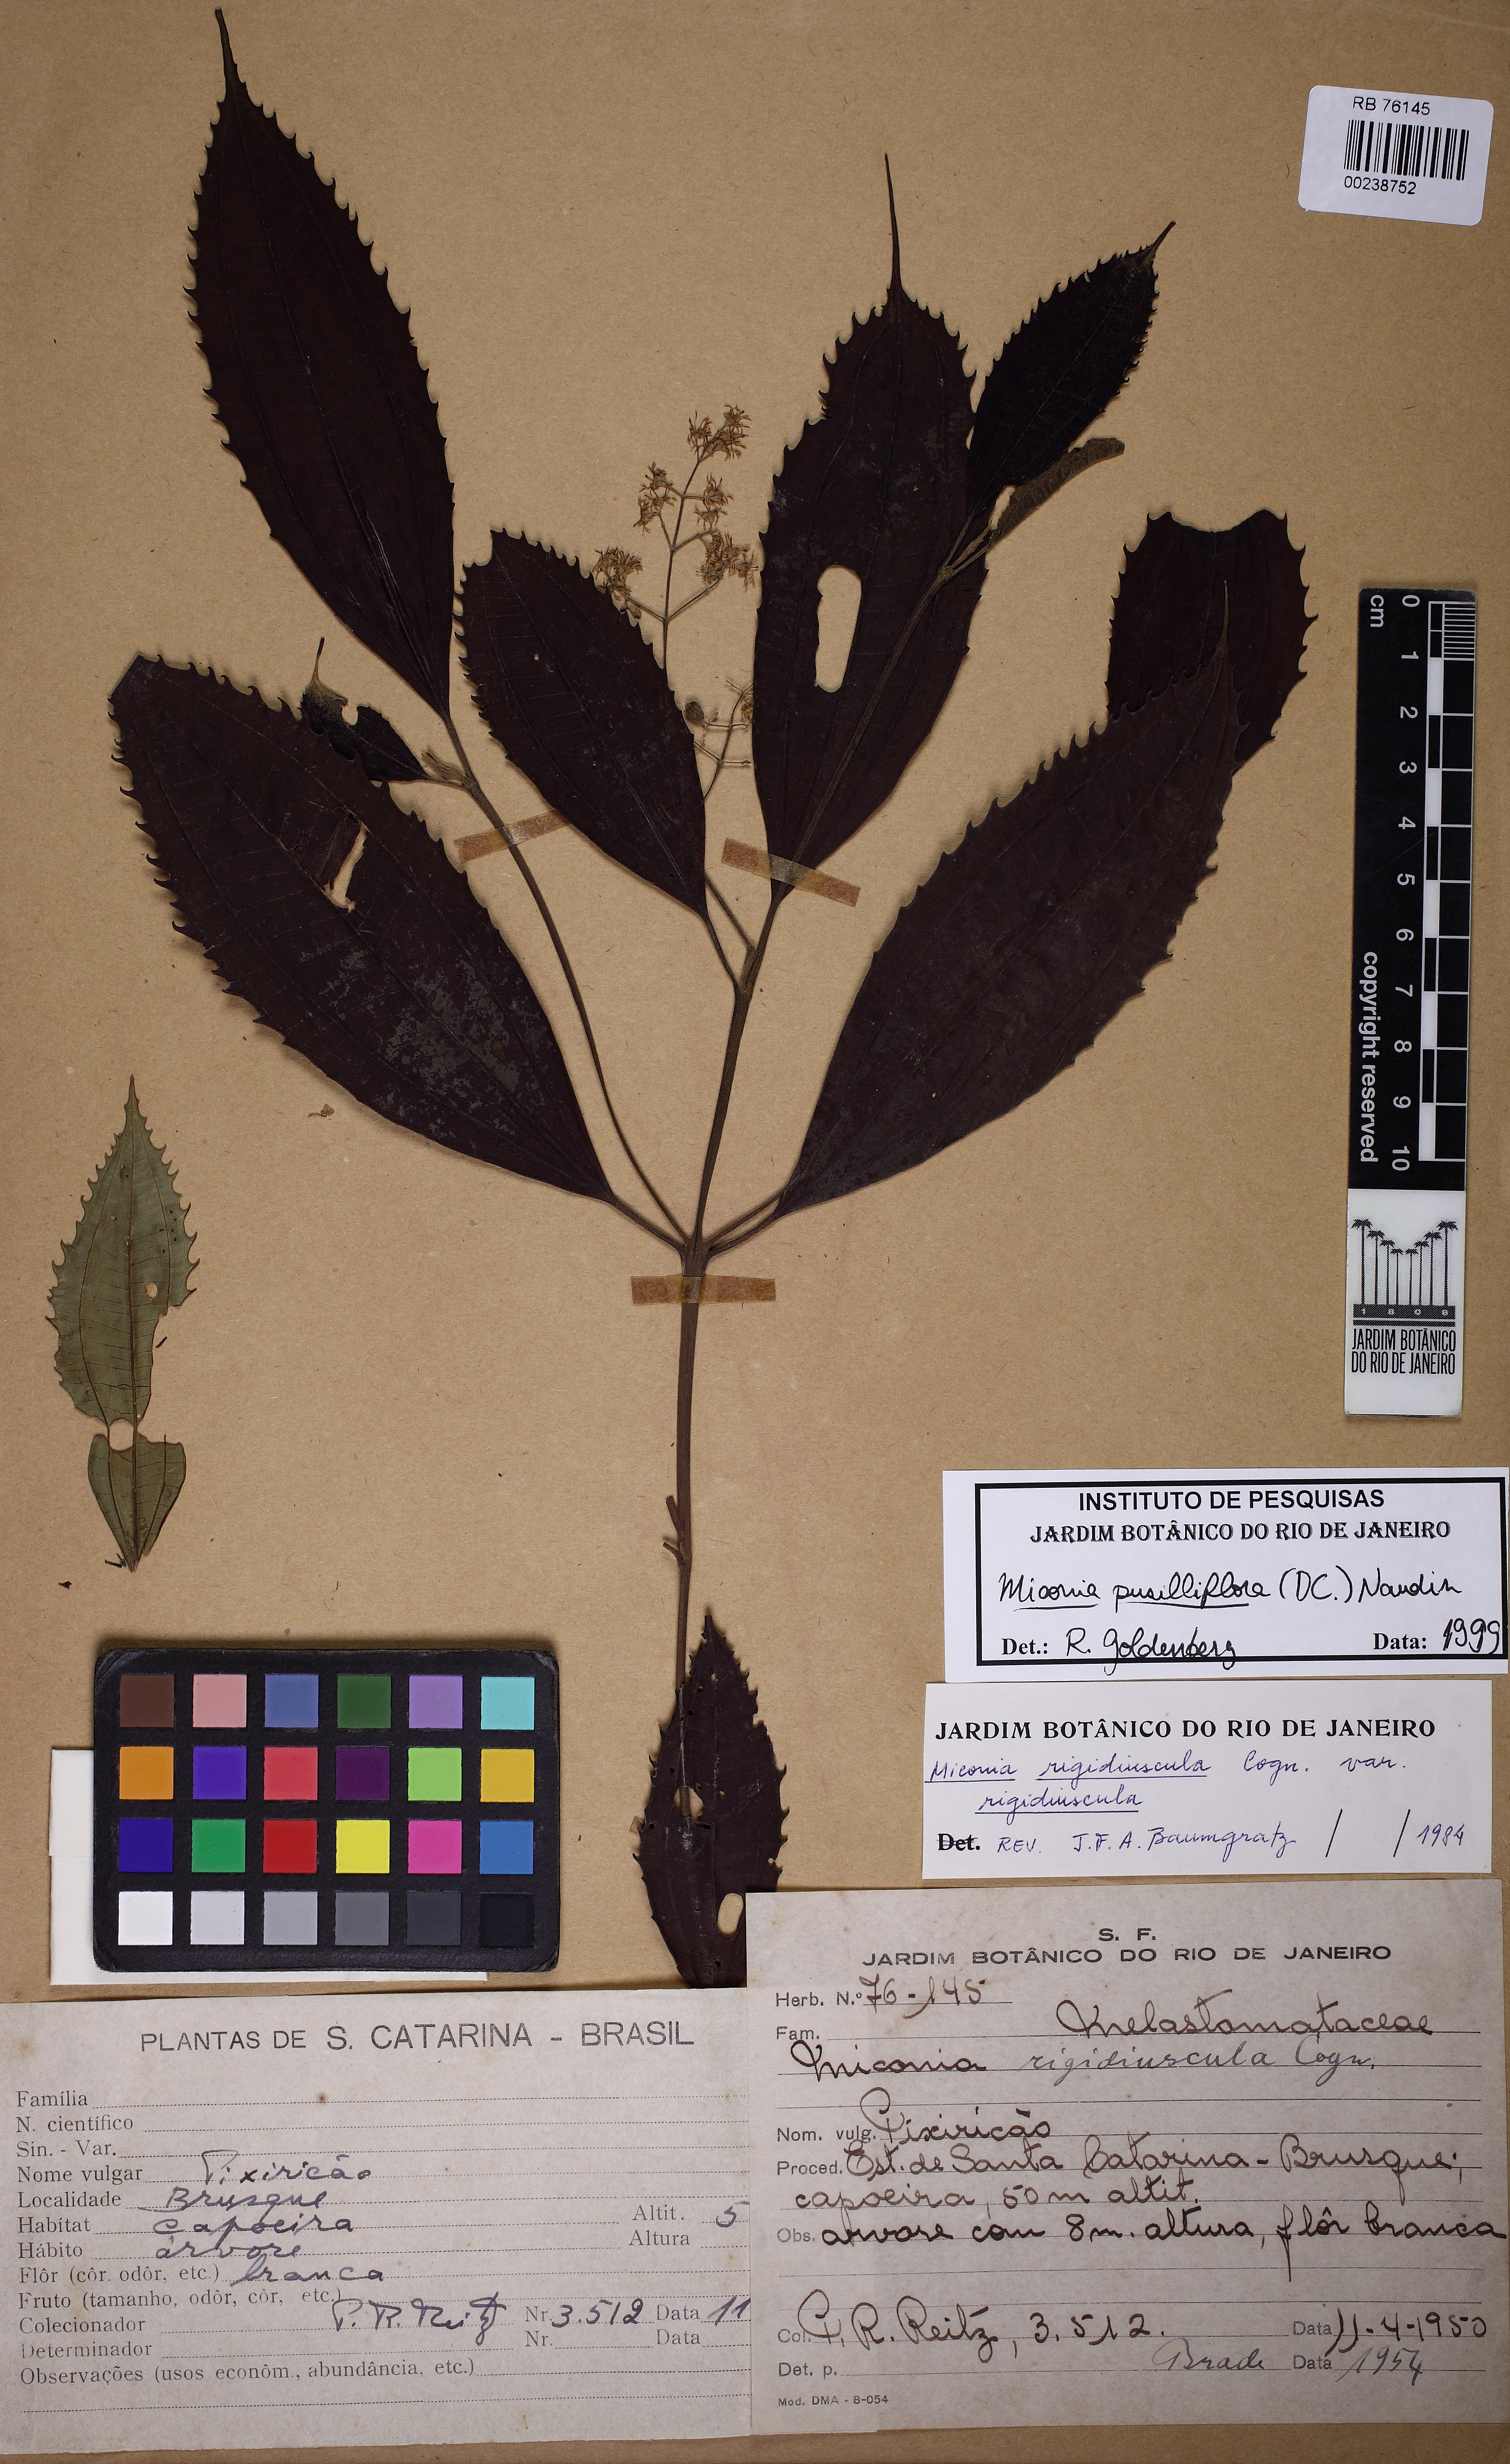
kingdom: Plantae
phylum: Tracheophyta
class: Magnoliopsida
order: Myrtales
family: Melastomataceae
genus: Miconia
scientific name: Miconia pusilliflora
